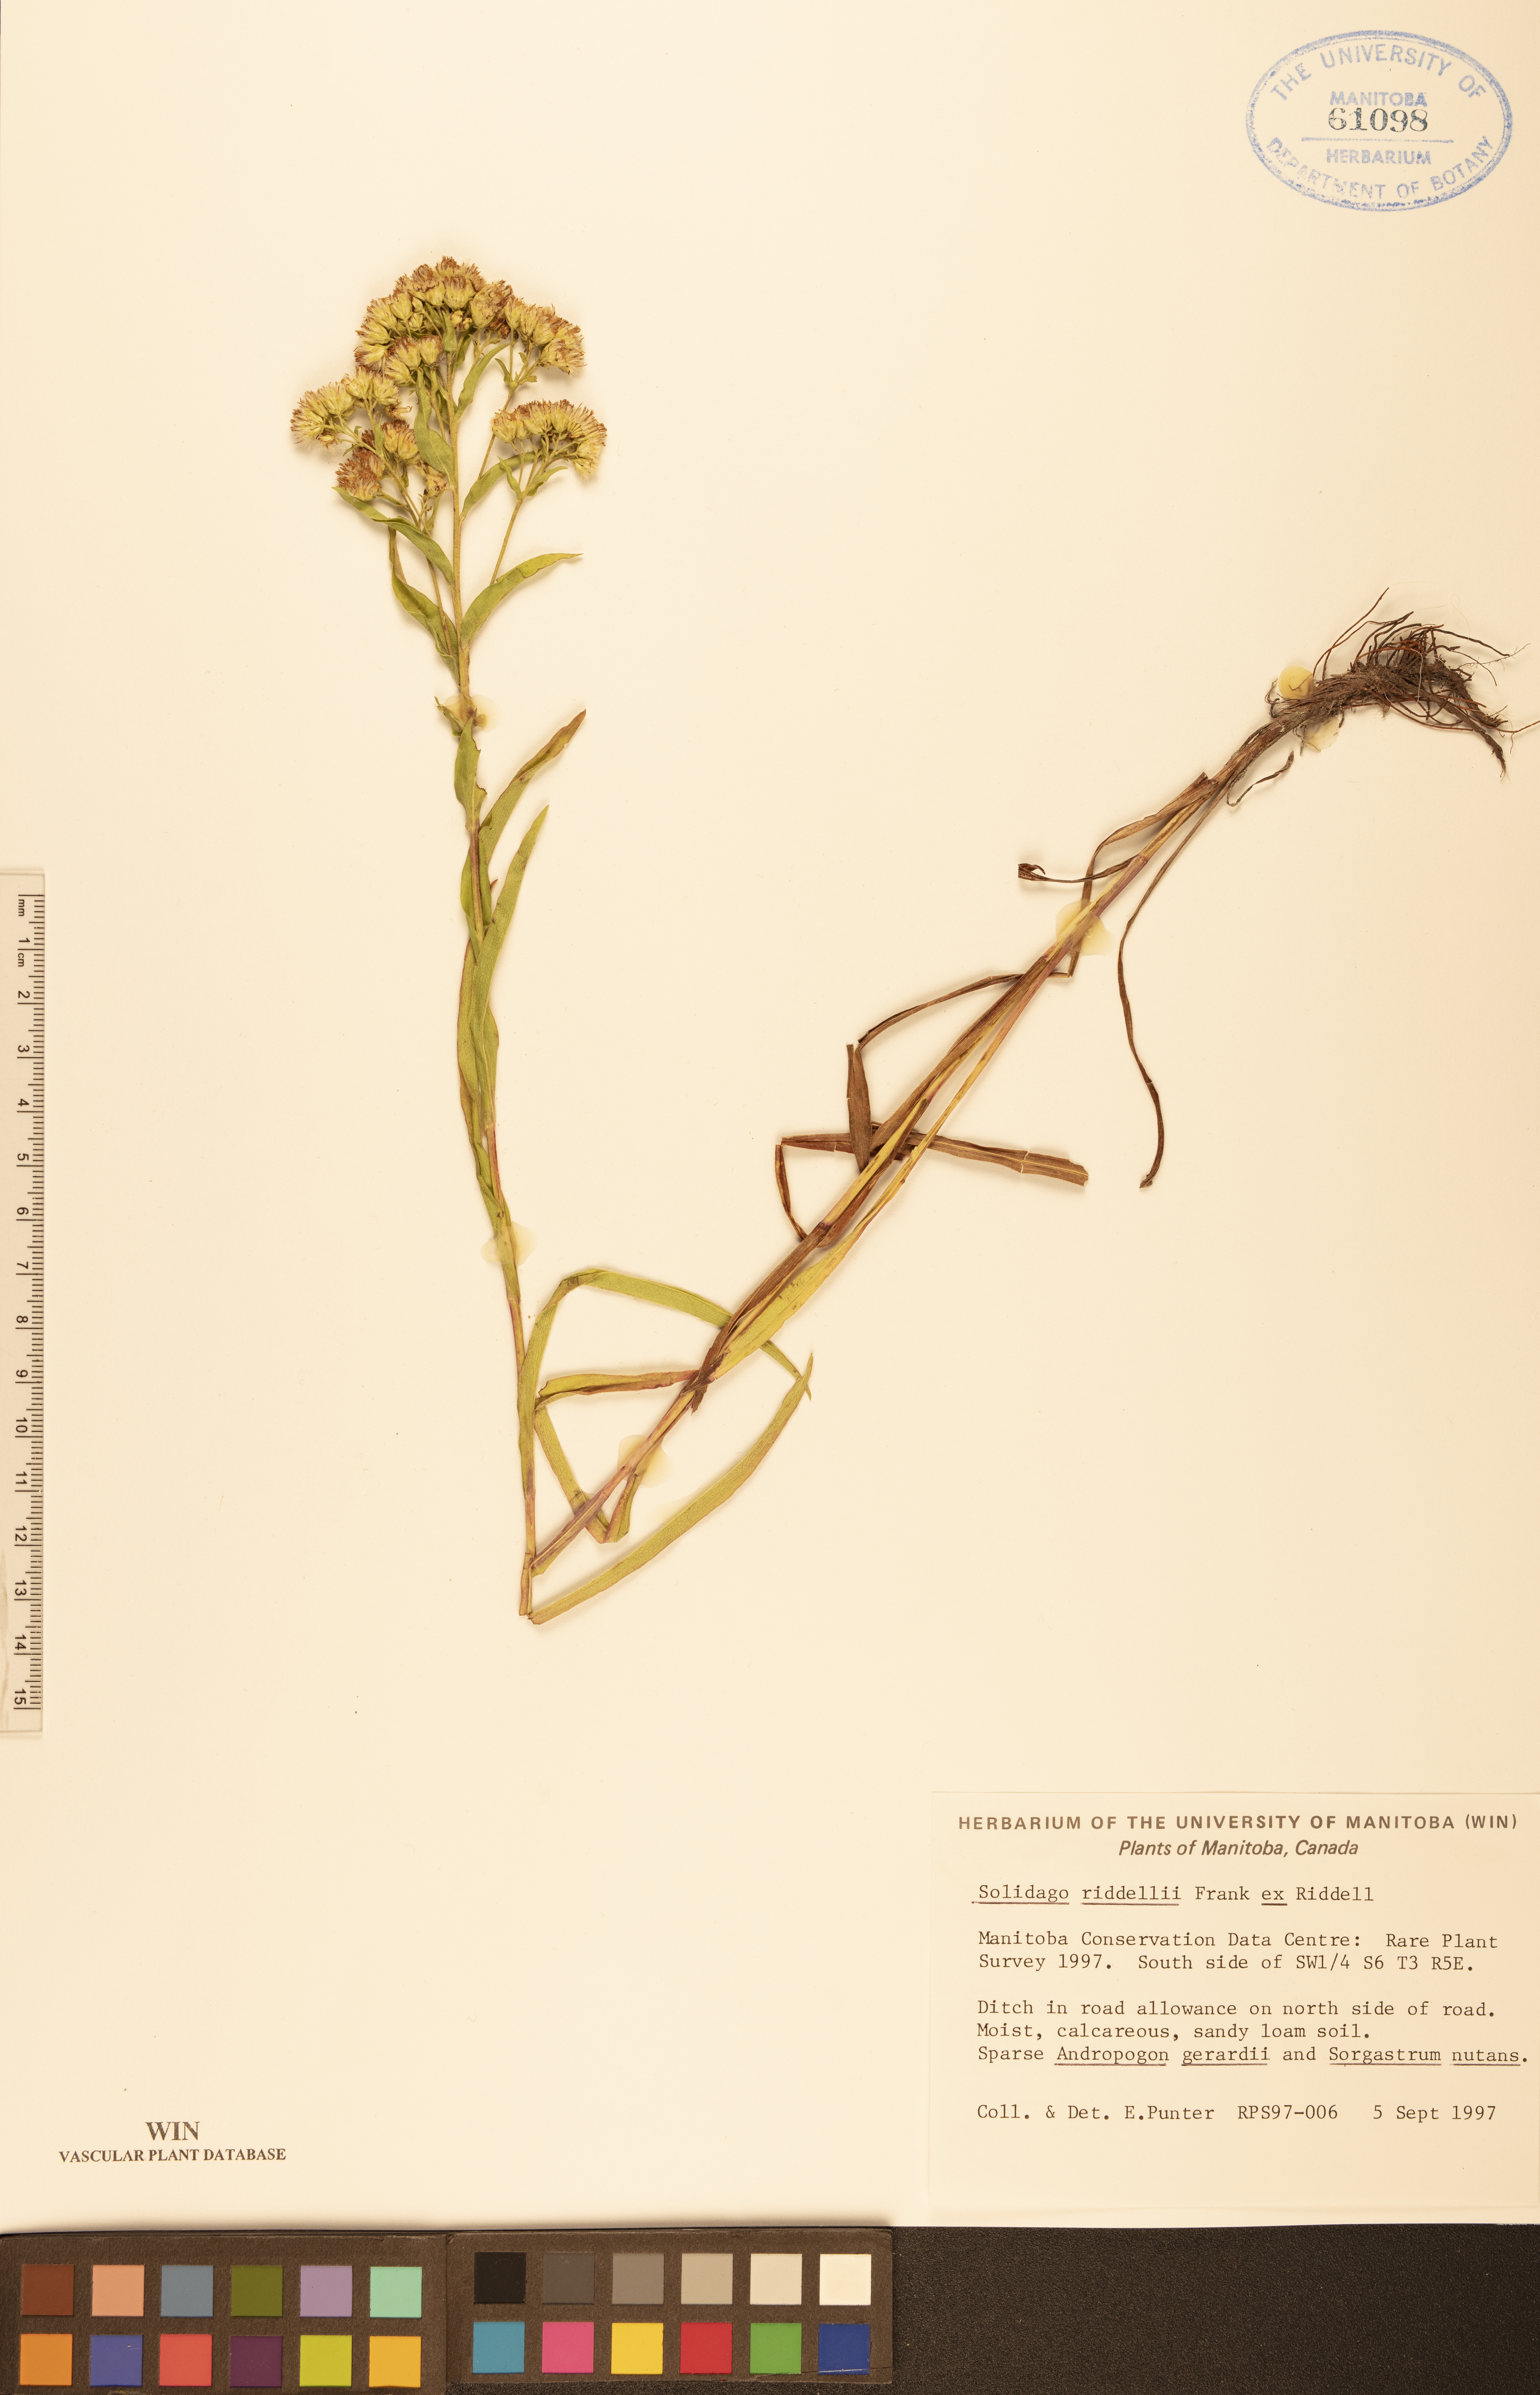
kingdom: Plantae
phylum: Tracheophyta
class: Magnoliopsida
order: Asterales
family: Asteraceae
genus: Solidago
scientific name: Solidago riddellii
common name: Riddell's goldenrod
